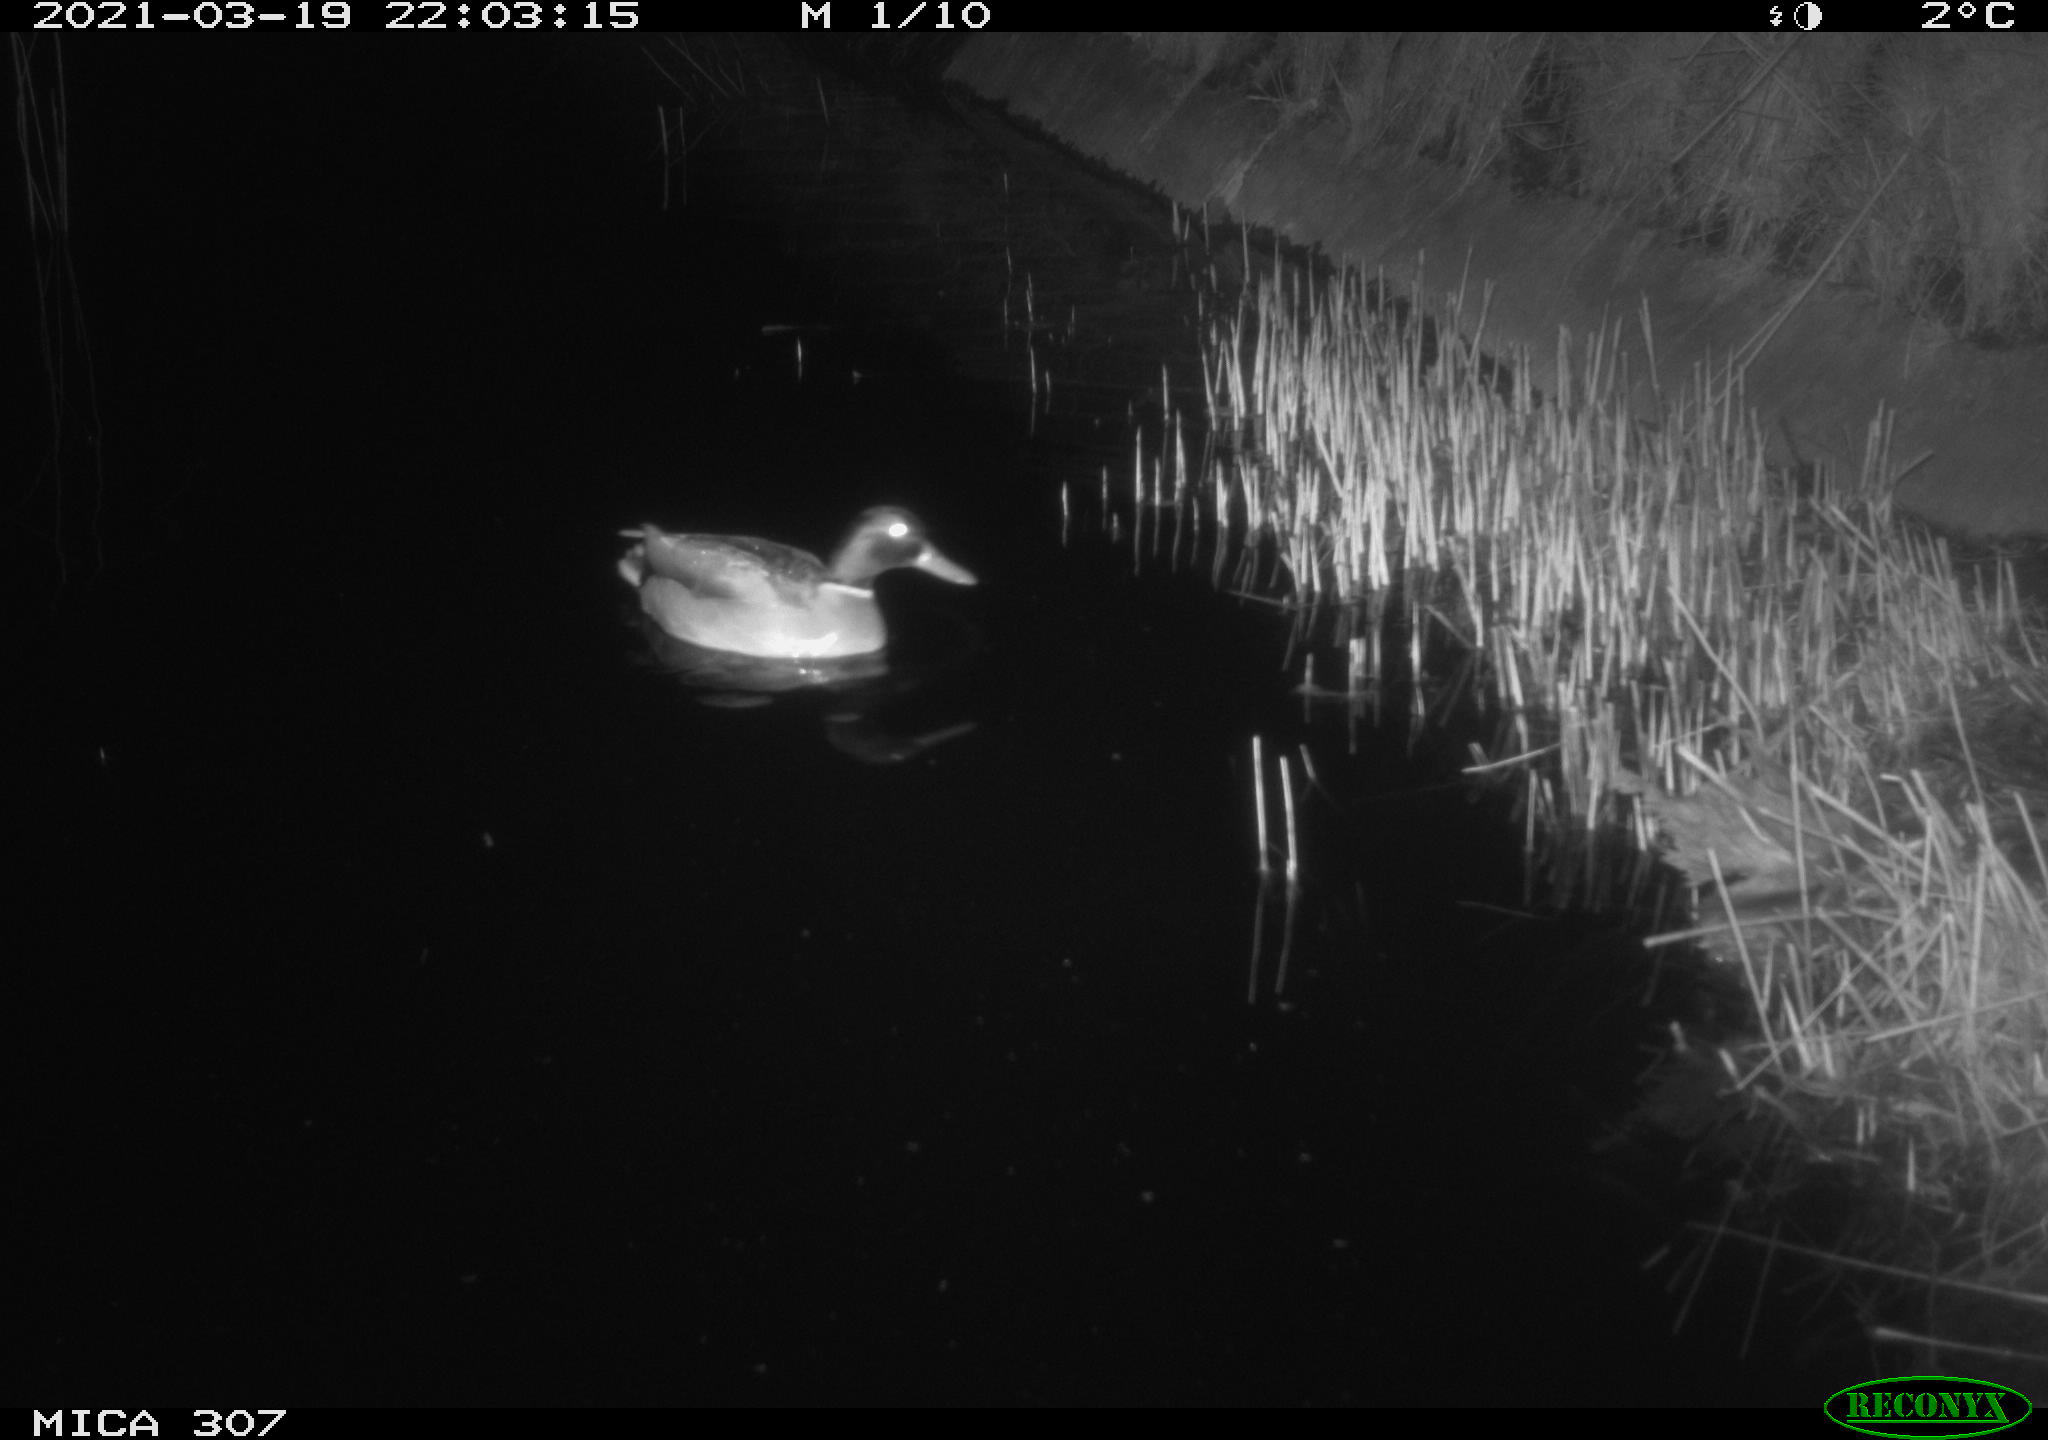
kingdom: Animalia
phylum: Chordata
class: Aves
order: Anseriformes
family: Anatidae
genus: Anas
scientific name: Anas platyrhynchos
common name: Mallard
